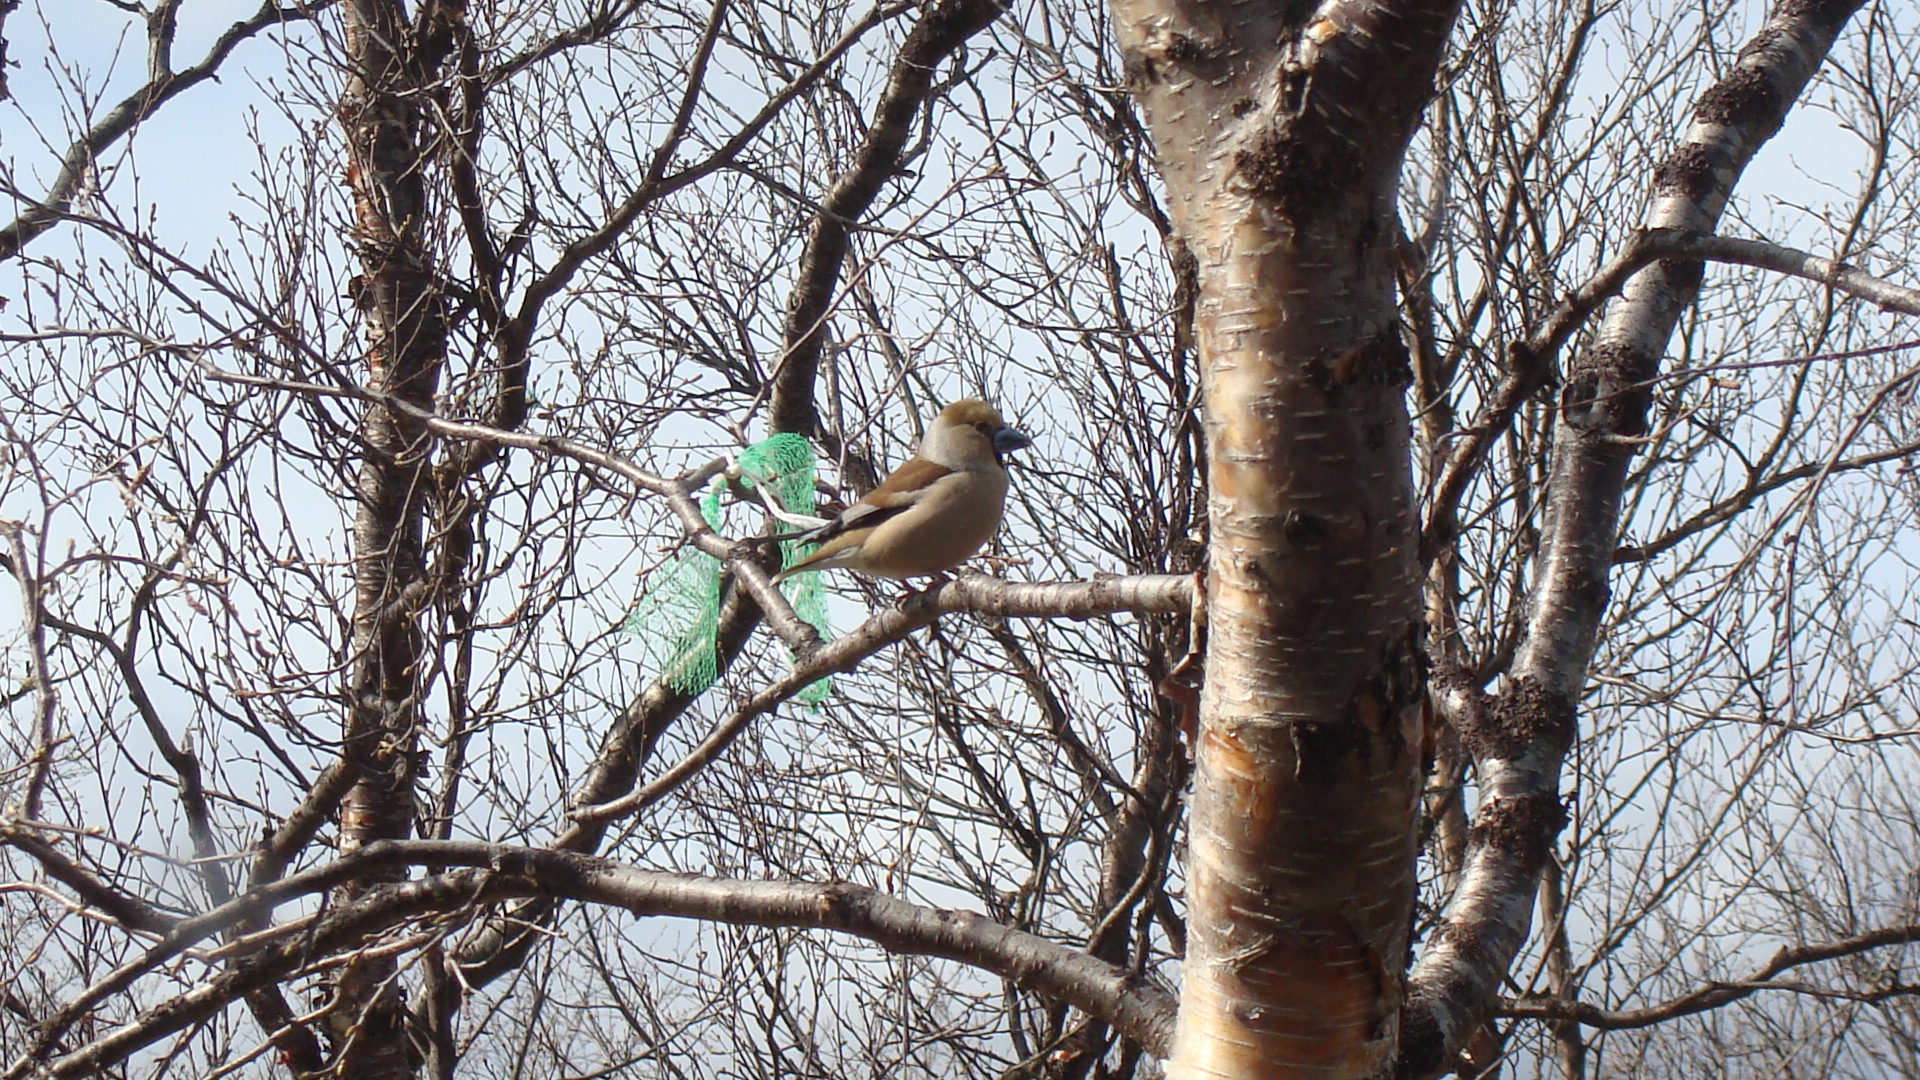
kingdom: Animalia
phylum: Chordata
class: Aves
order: Passeriformes
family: Fringillidae
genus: Coccothraustes
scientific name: Coccothraustes coccothraustes
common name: Hawfinch
